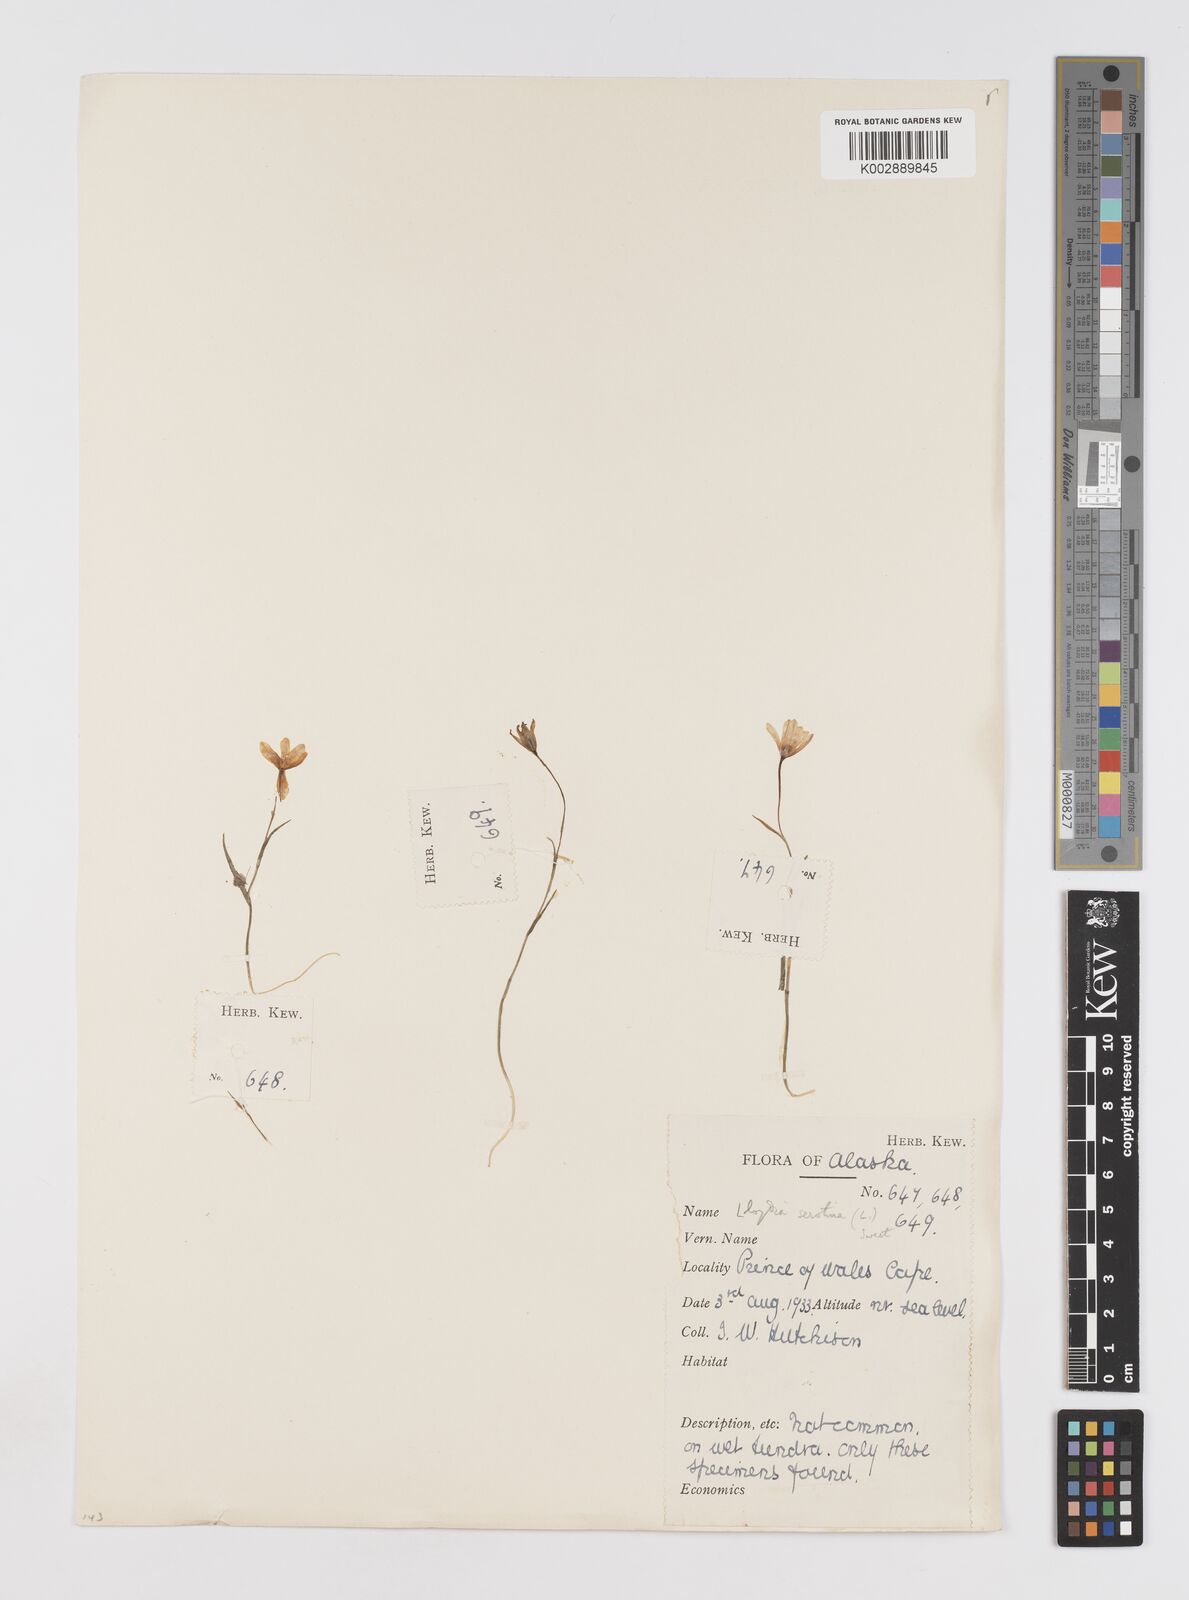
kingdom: Plantae
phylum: Tracheophyta
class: Liliopsida
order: Liliales
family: Liliaceae
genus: Gagea
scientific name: Gagea serotina
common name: Snowdon lily
